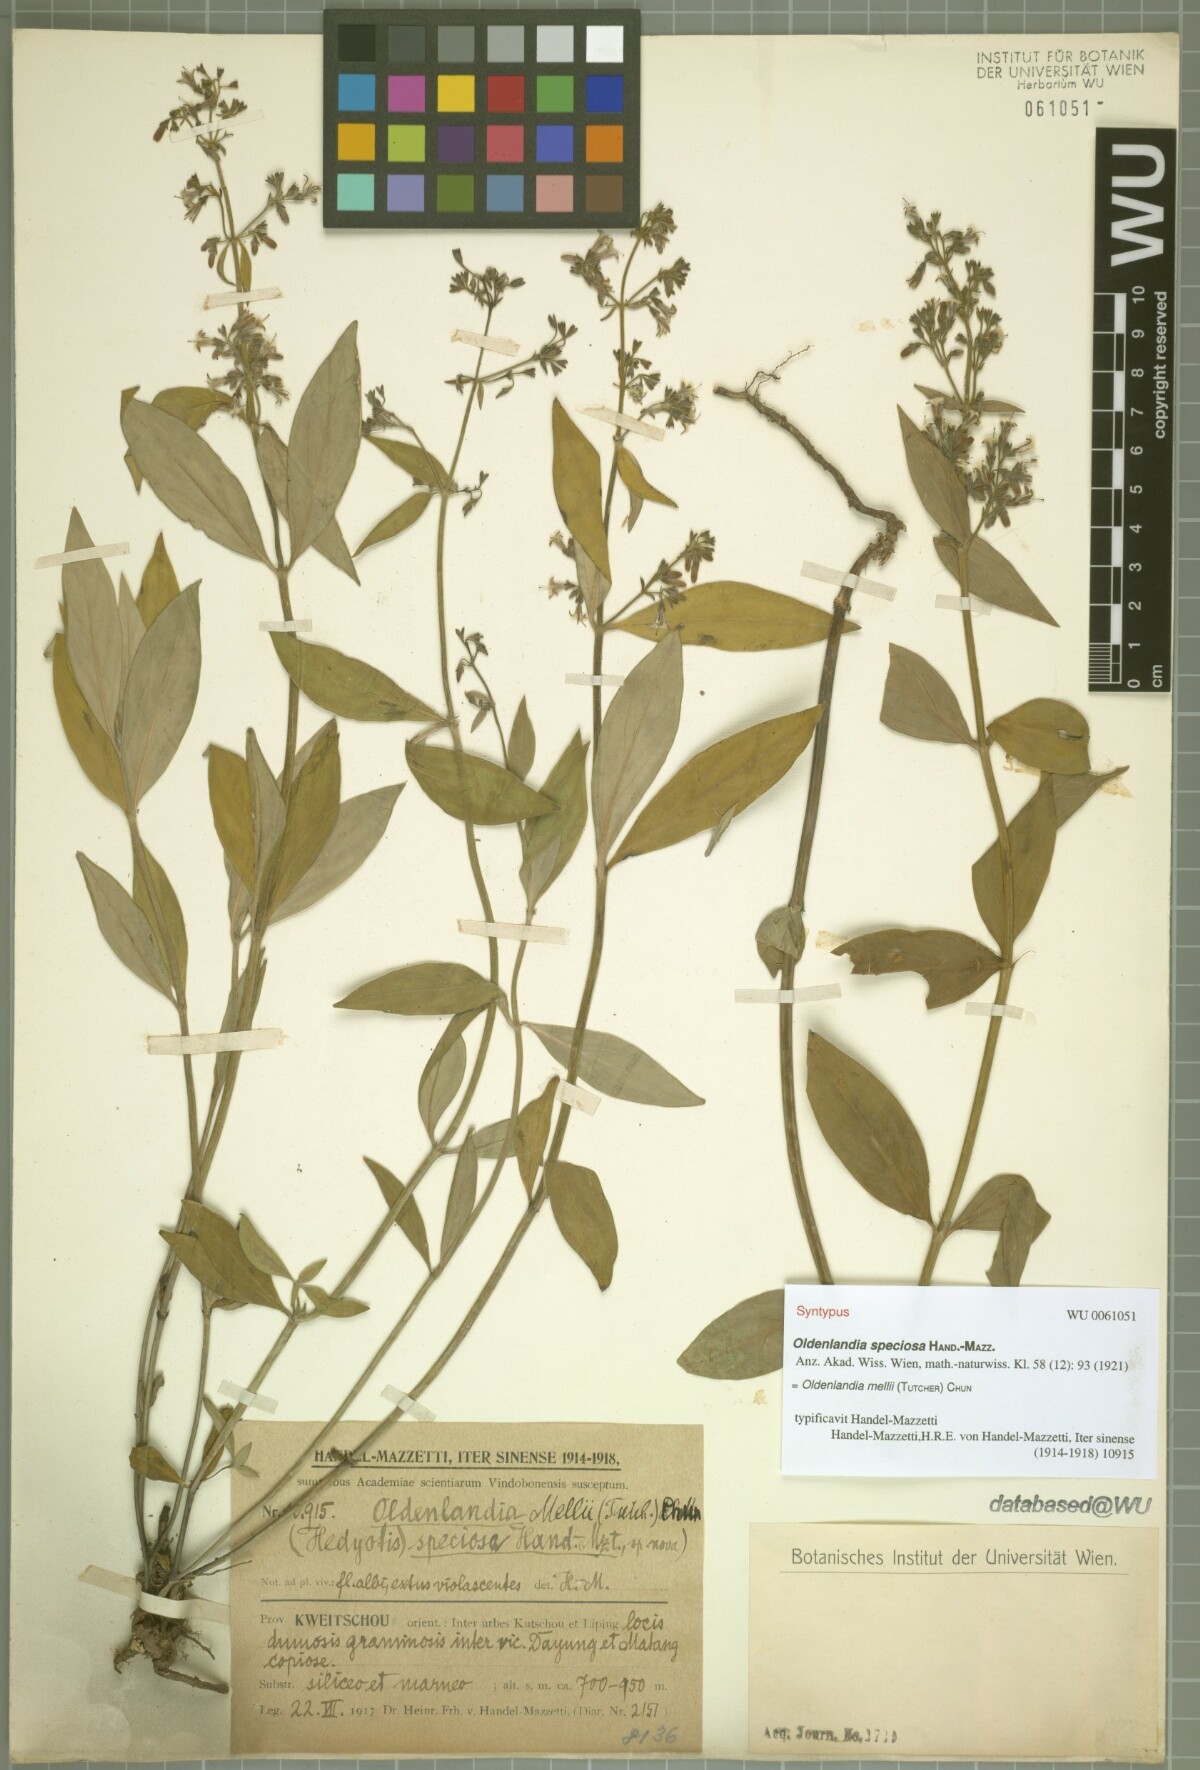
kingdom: Plantae
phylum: Tracheophyta
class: Magnoliopsida
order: Gentianales
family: Rubiaceae
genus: Hedyotis
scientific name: Hedyotis matthewii
